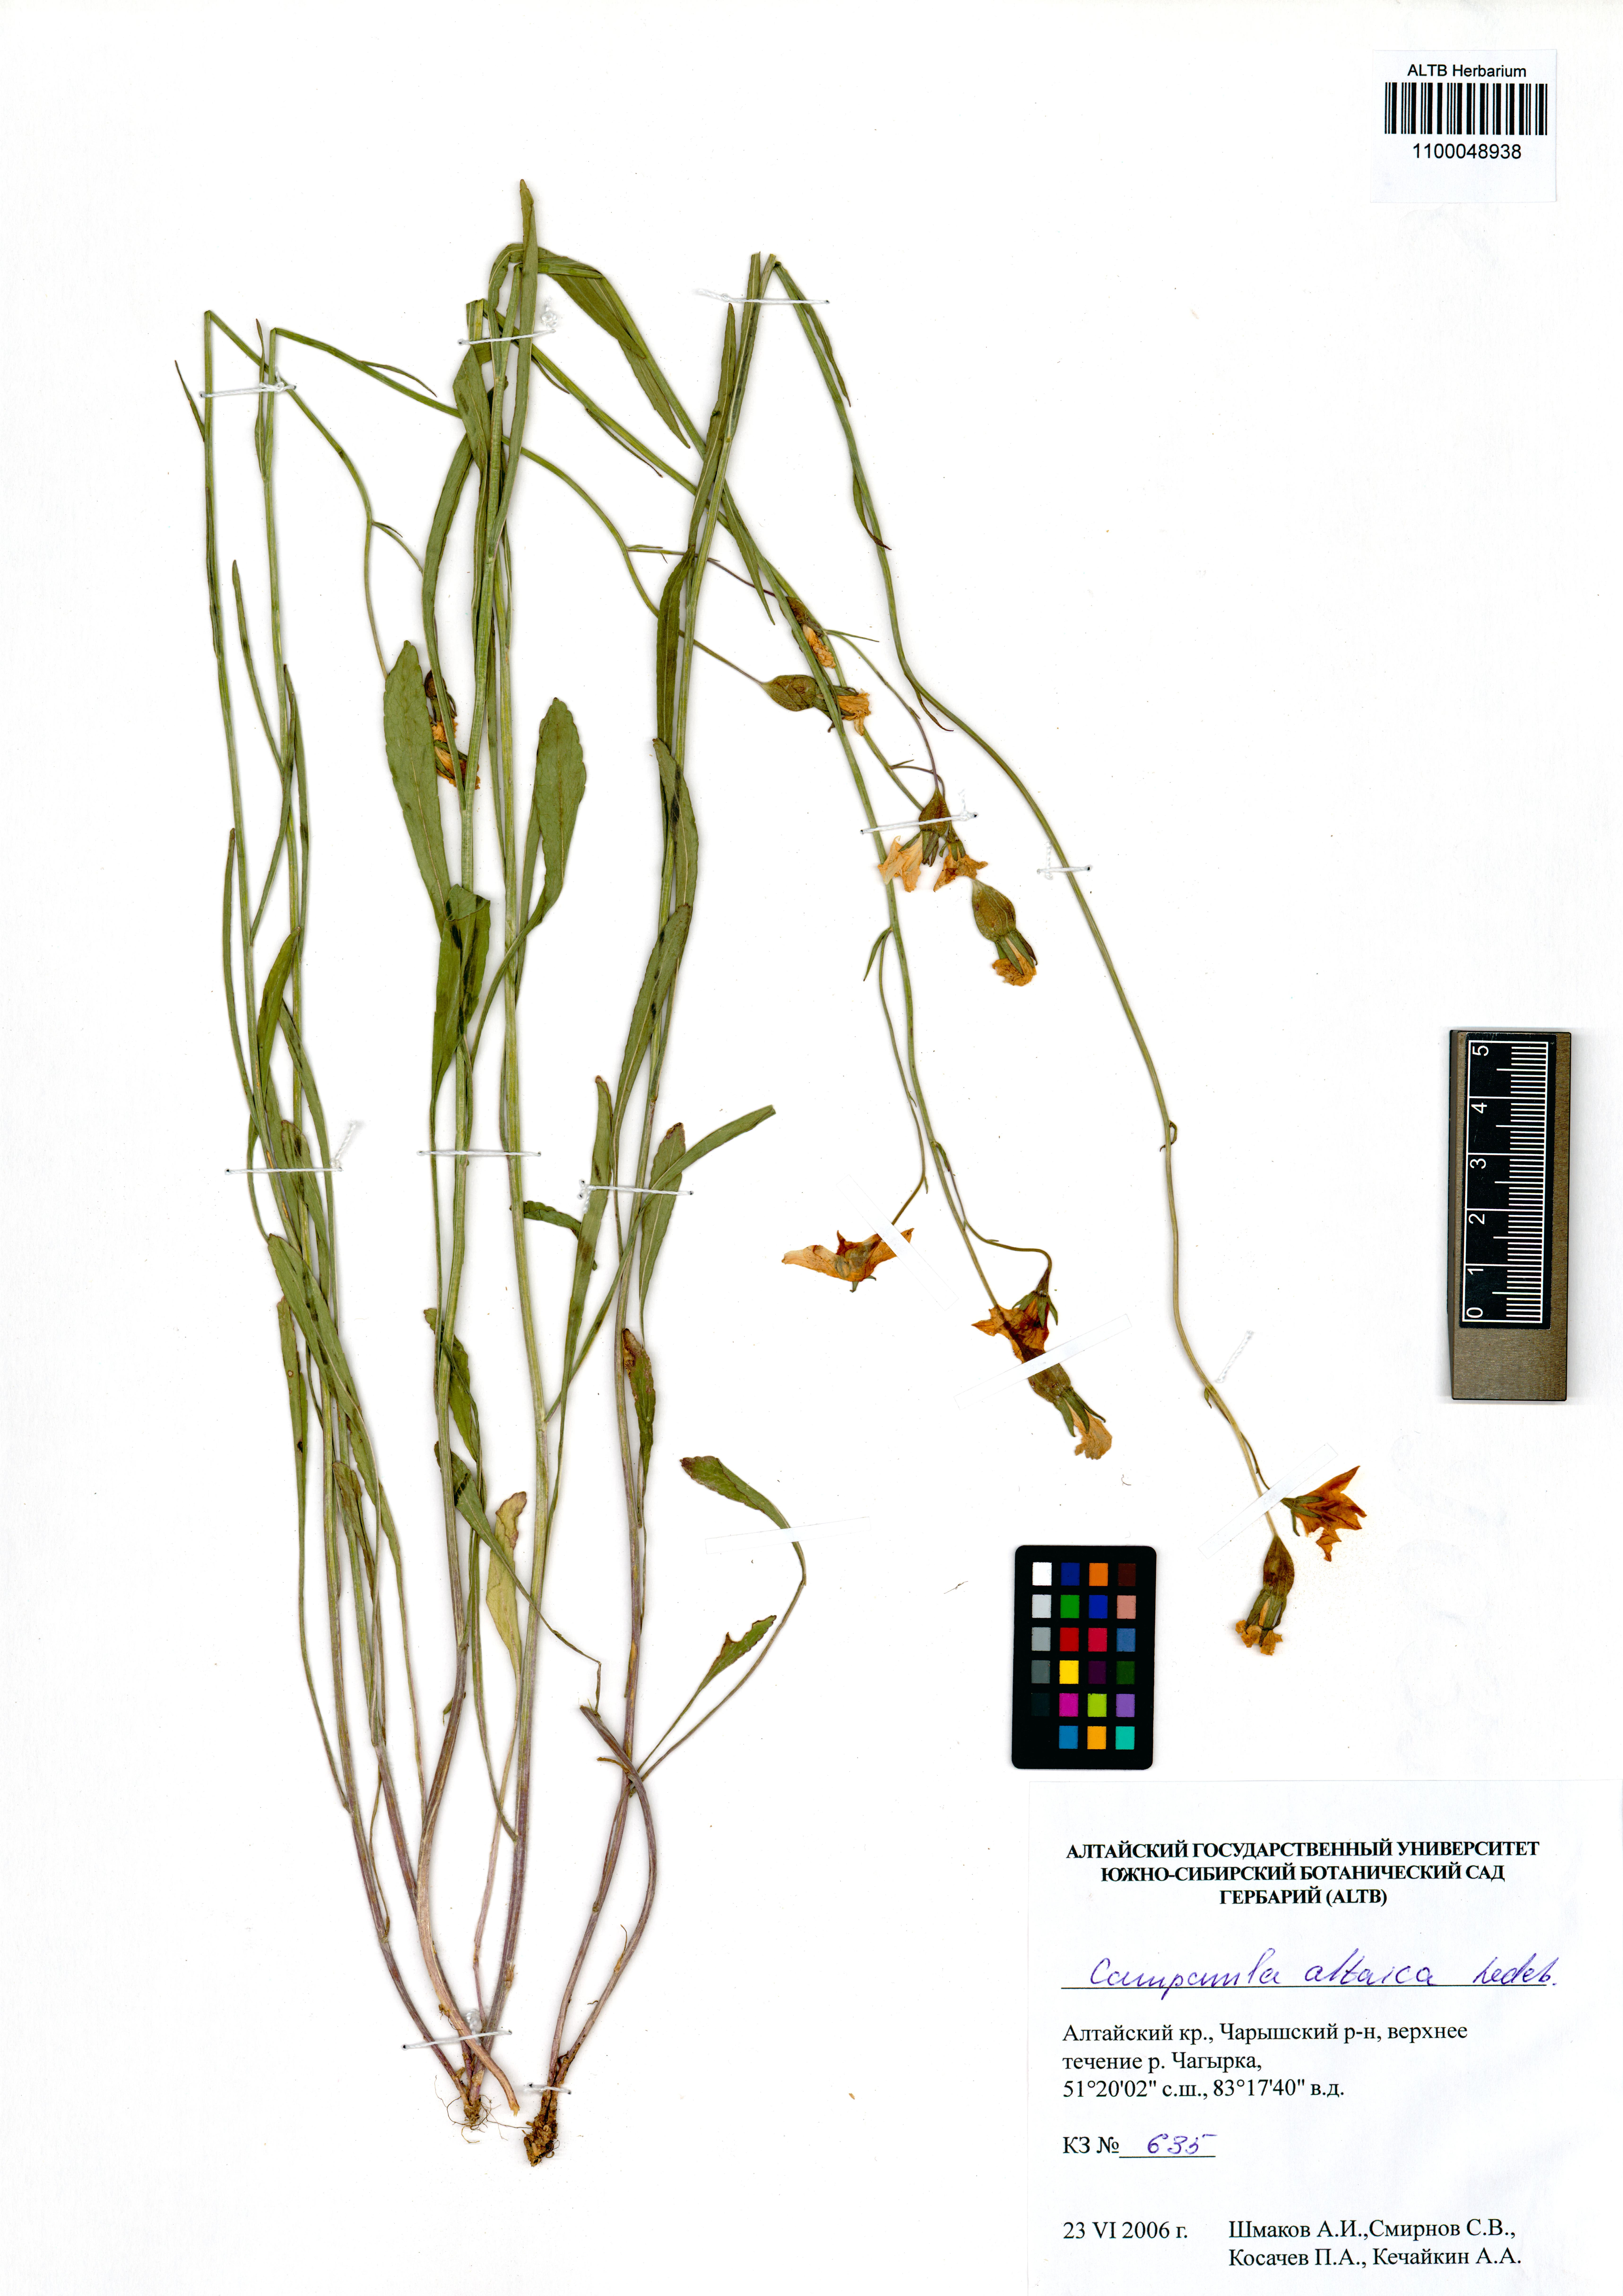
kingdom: Plantae
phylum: Tracheophyta
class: Magnoliopsida
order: Asterales
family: Campanulaceae
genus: Campanula
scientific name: Campanula stevenii
